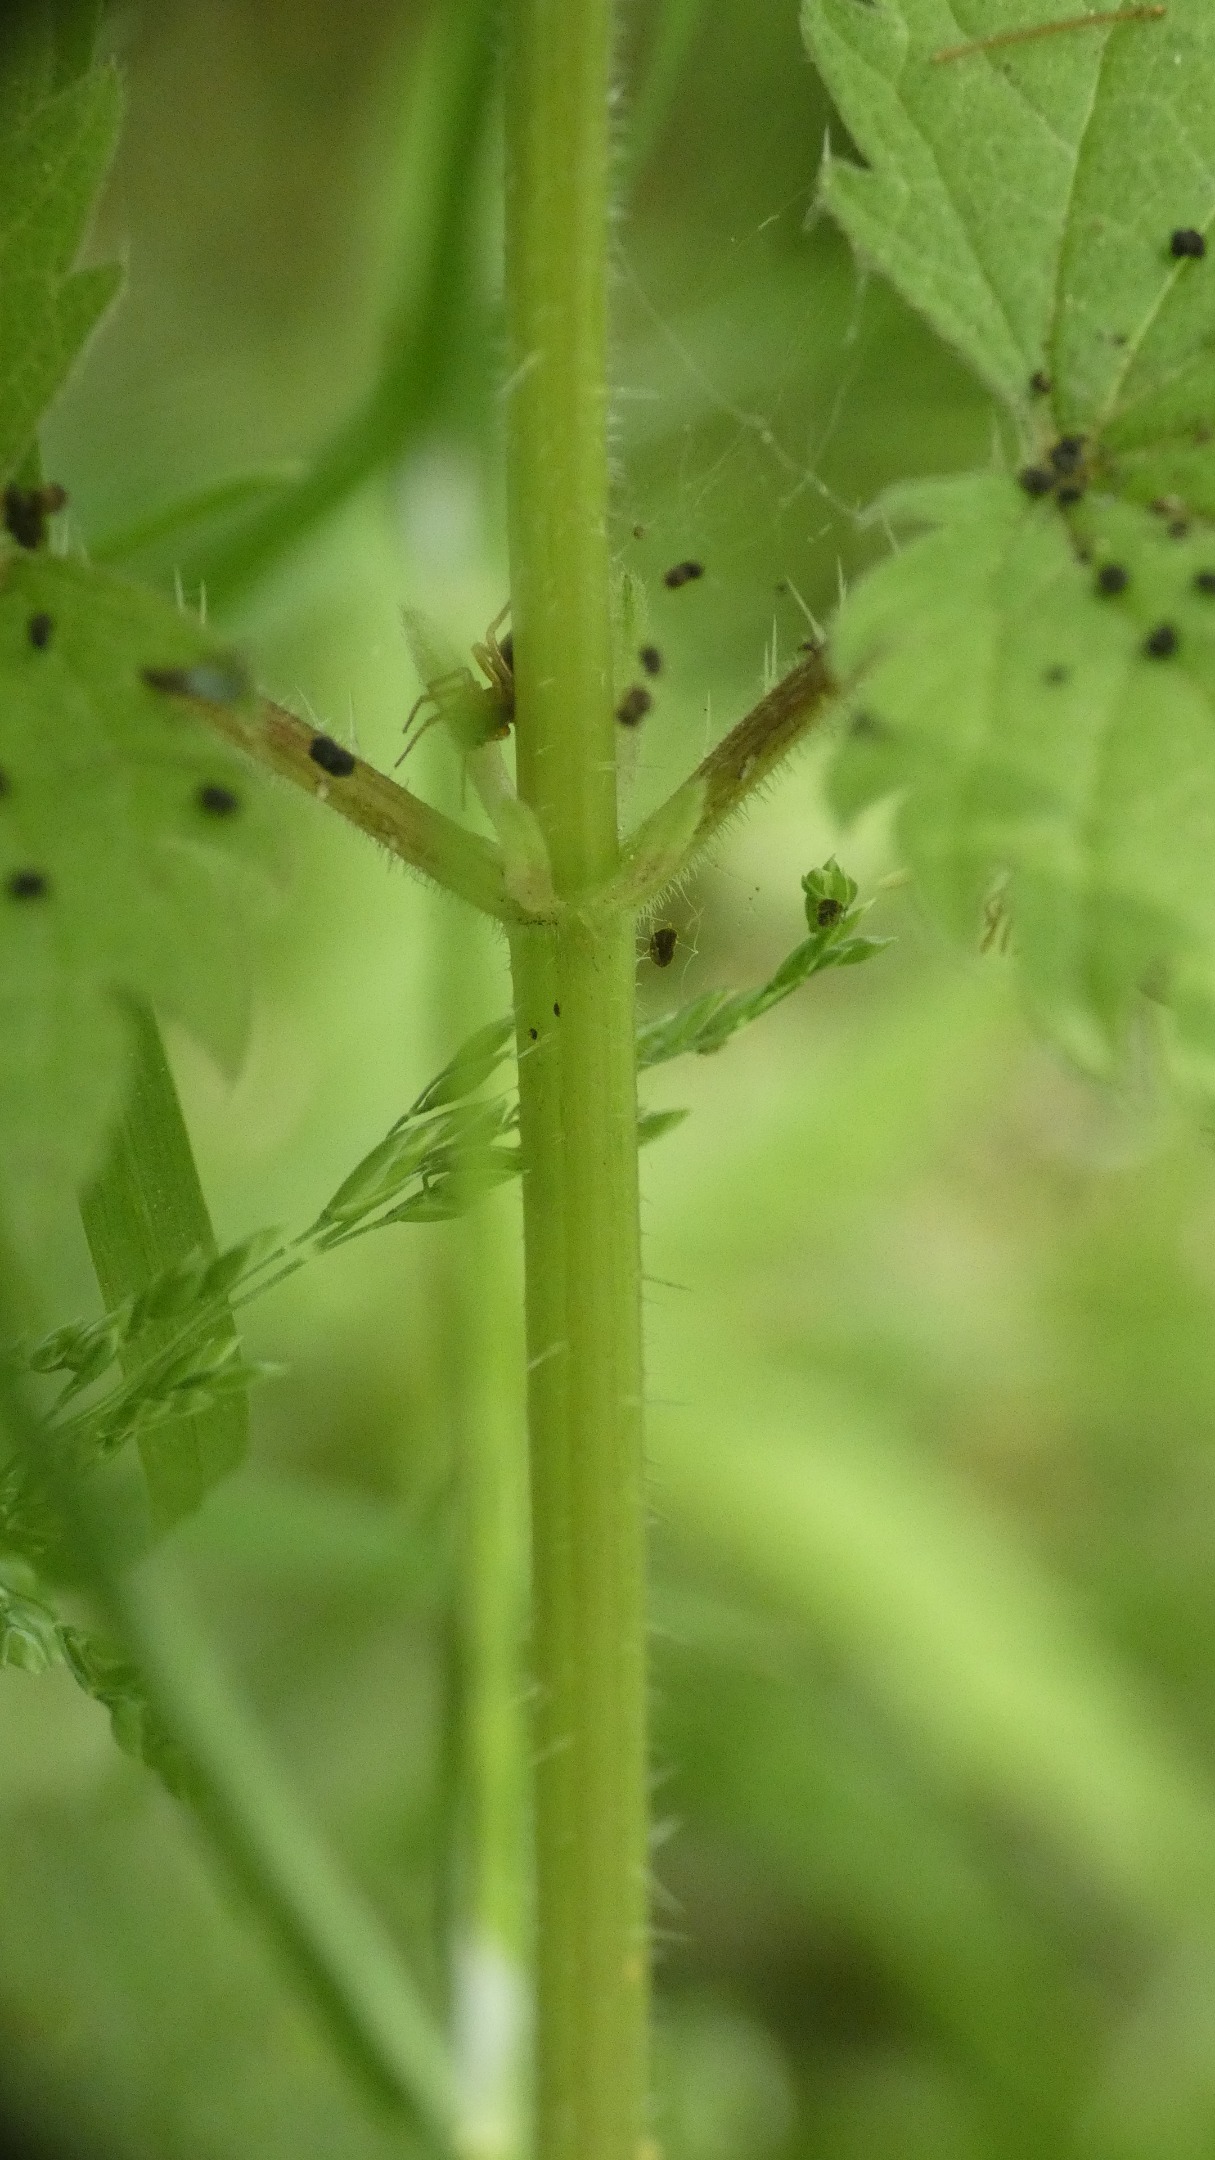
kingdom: Plantae
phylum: Tracheophyta
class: Magnoliopsida
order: Rosales
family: Urticaceae
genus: Urtica
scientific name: Urtica dioica
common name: Stor nælde
